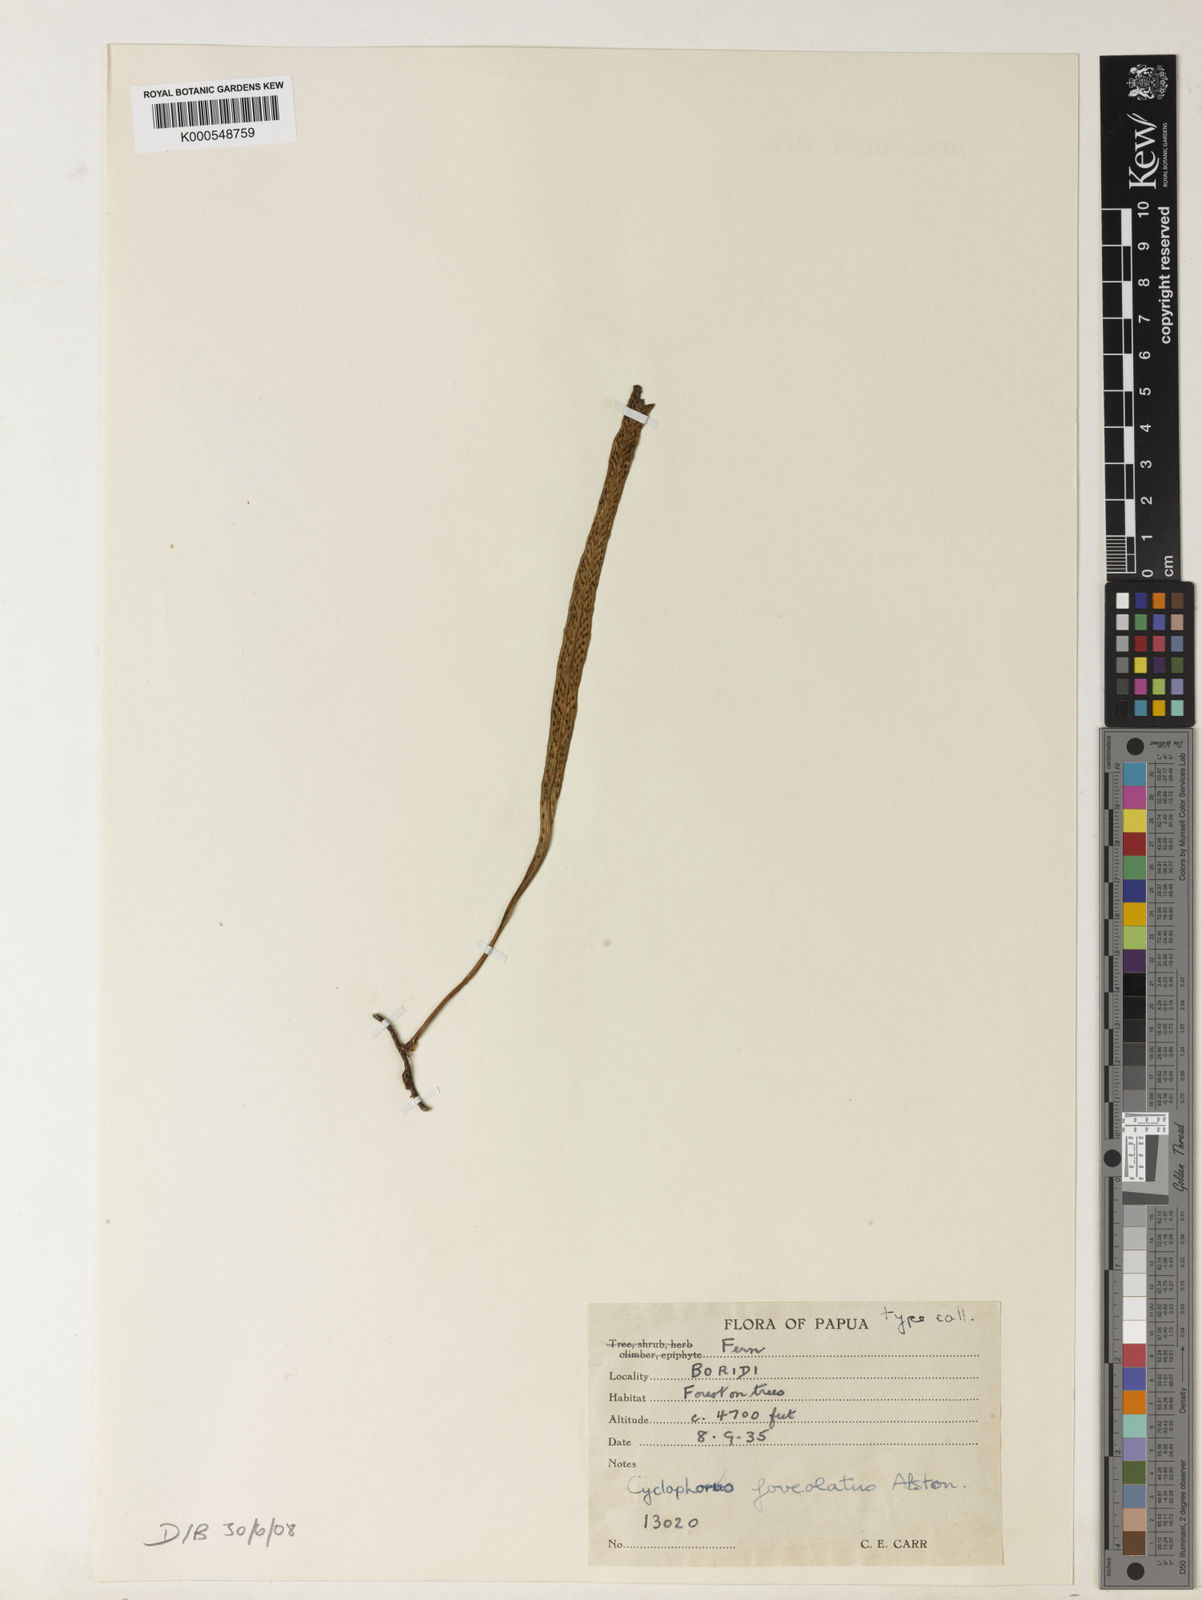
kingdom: Plantae
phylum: Tracheophyta
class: Polypodiopsida
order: Polypodiales
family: Polypodiaceae
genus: Pyrrosia
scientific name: Pyrrosia foveolata
